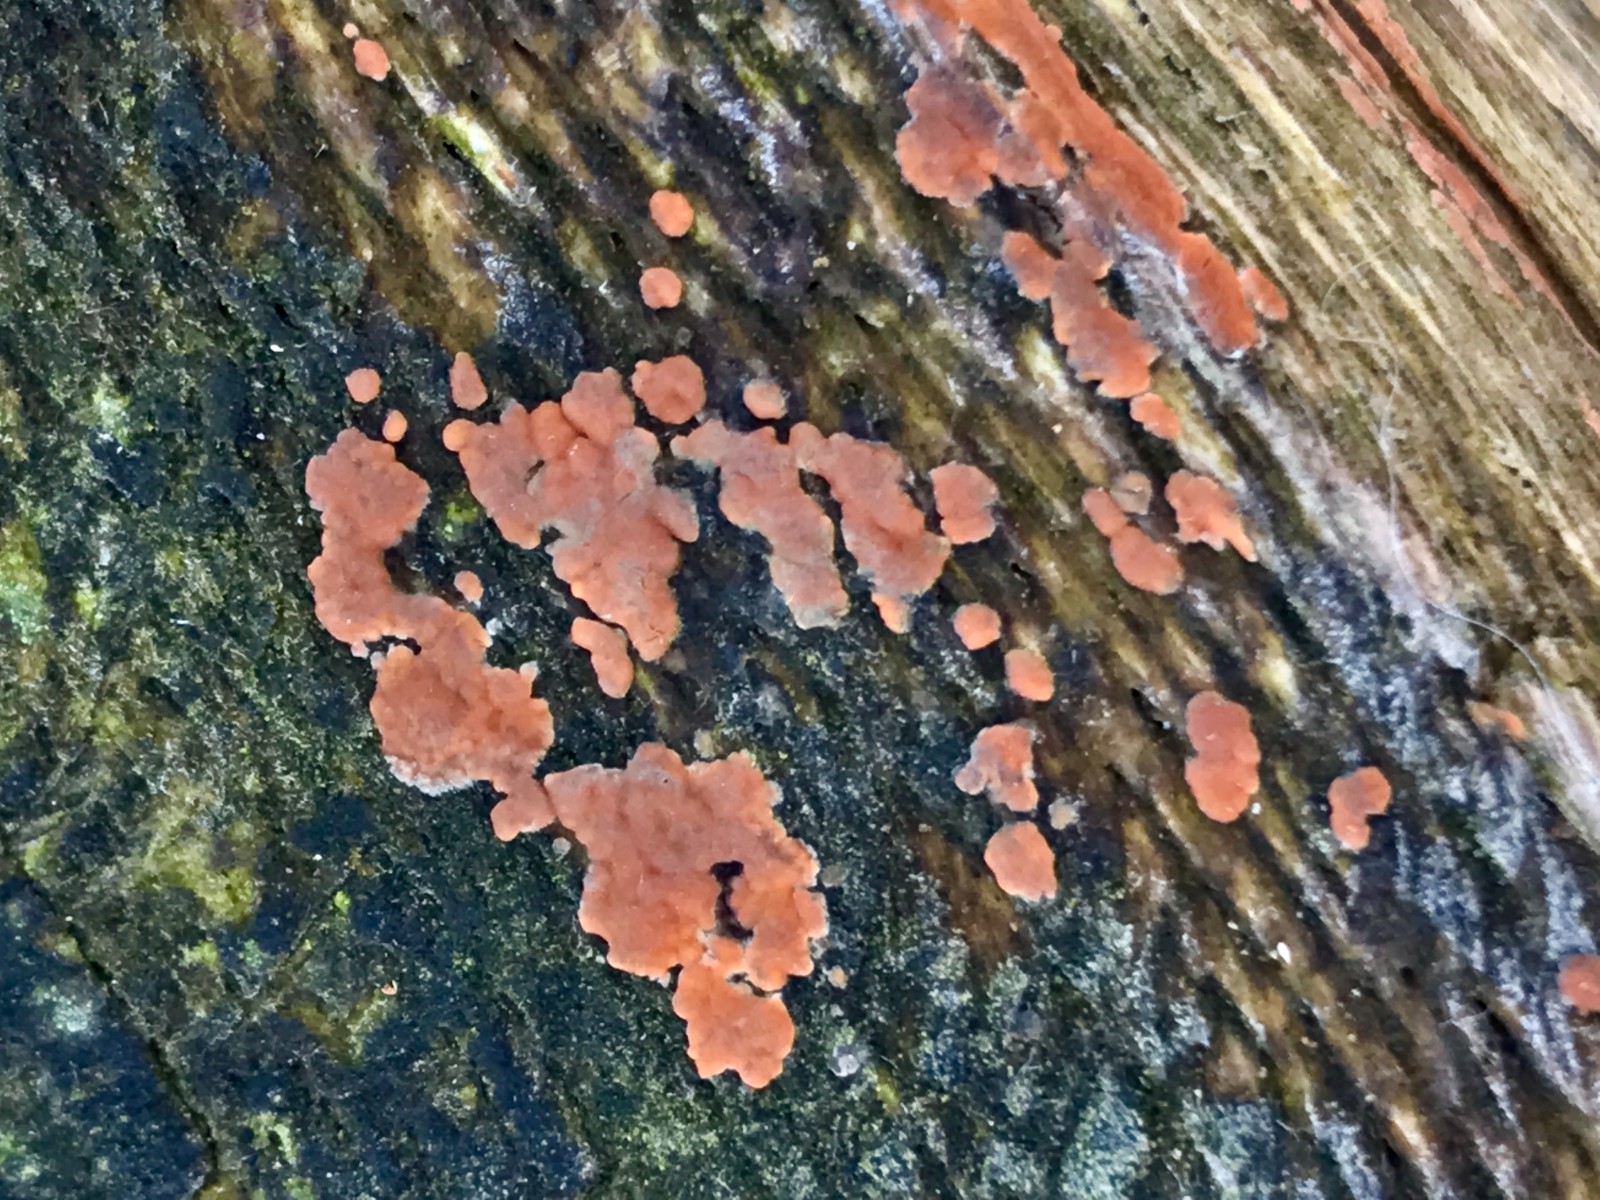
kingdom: Fungi
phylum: Basidiomycota
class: Agaricomycetes
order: Russulales
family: Peniophoraceae
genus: Peniophora
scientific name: Peniophora incarnata
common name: laksefarvet voksskind
